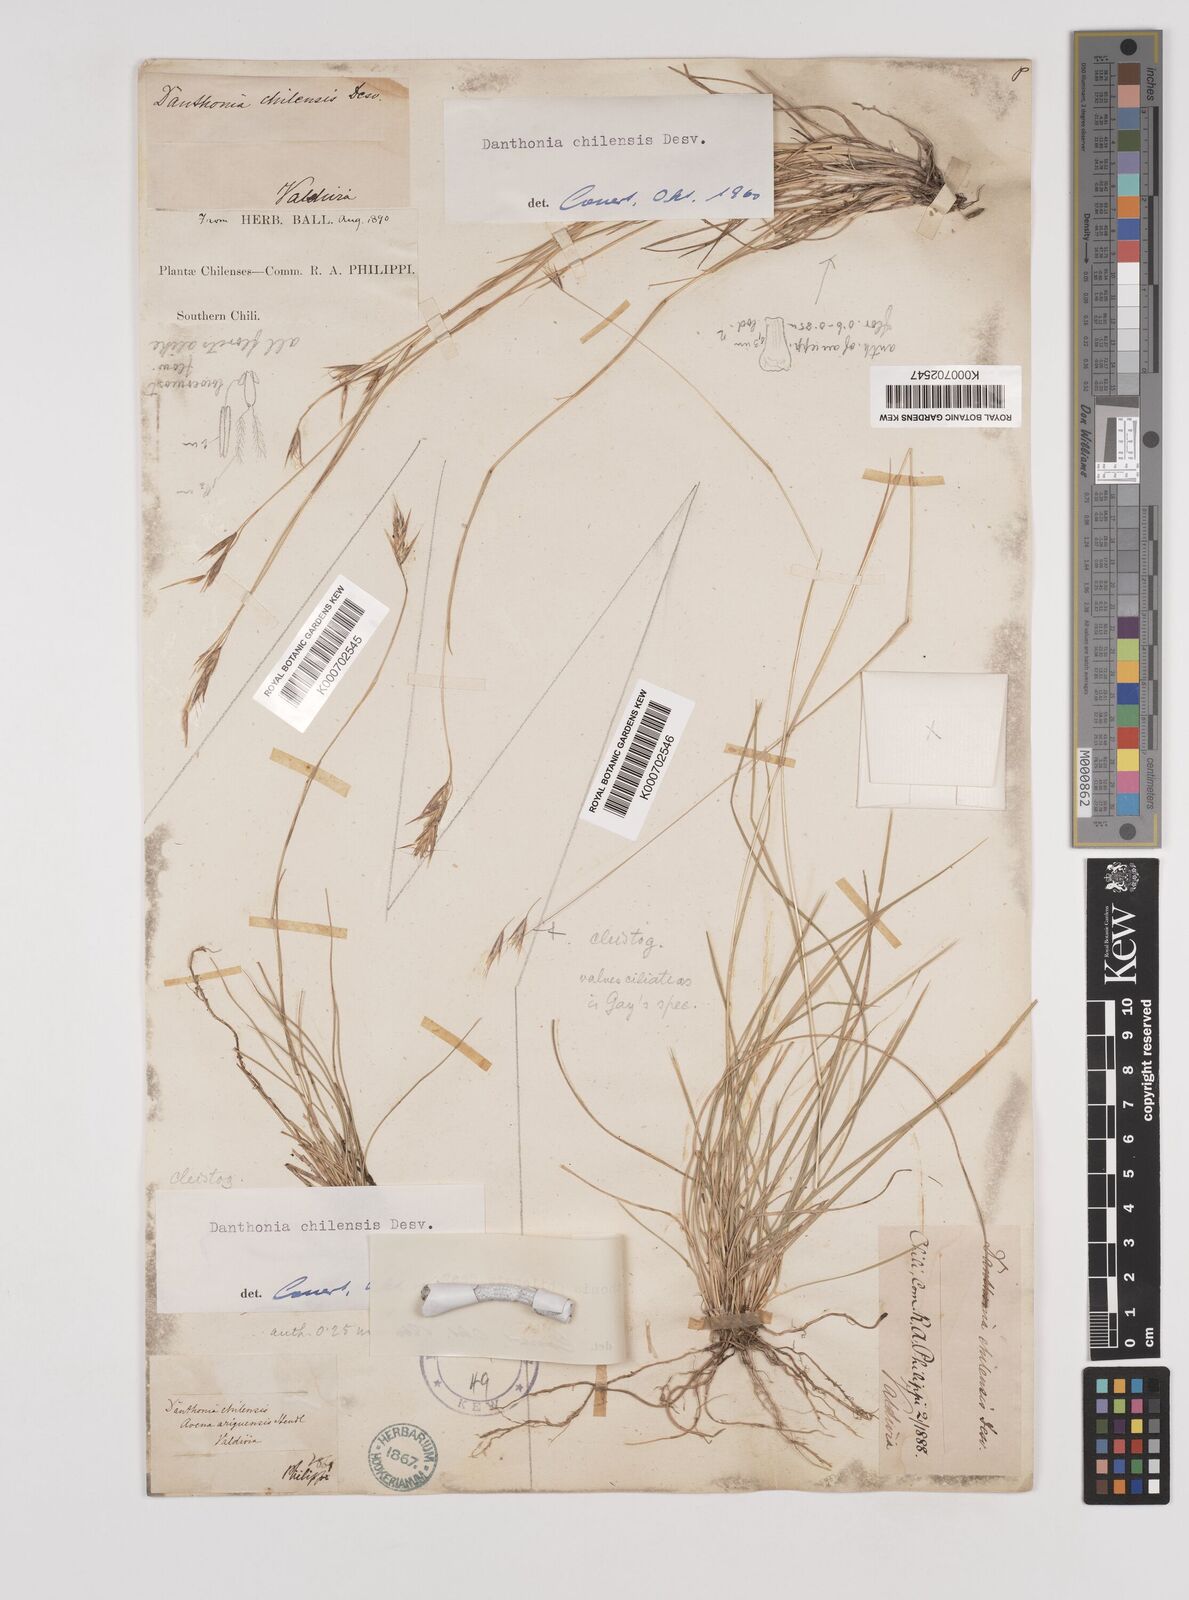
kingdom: Plantae
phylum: Tracheophyta
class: Liliopsida
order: Poales
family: Poaceae
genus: Danthonia
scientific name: Danthonia
